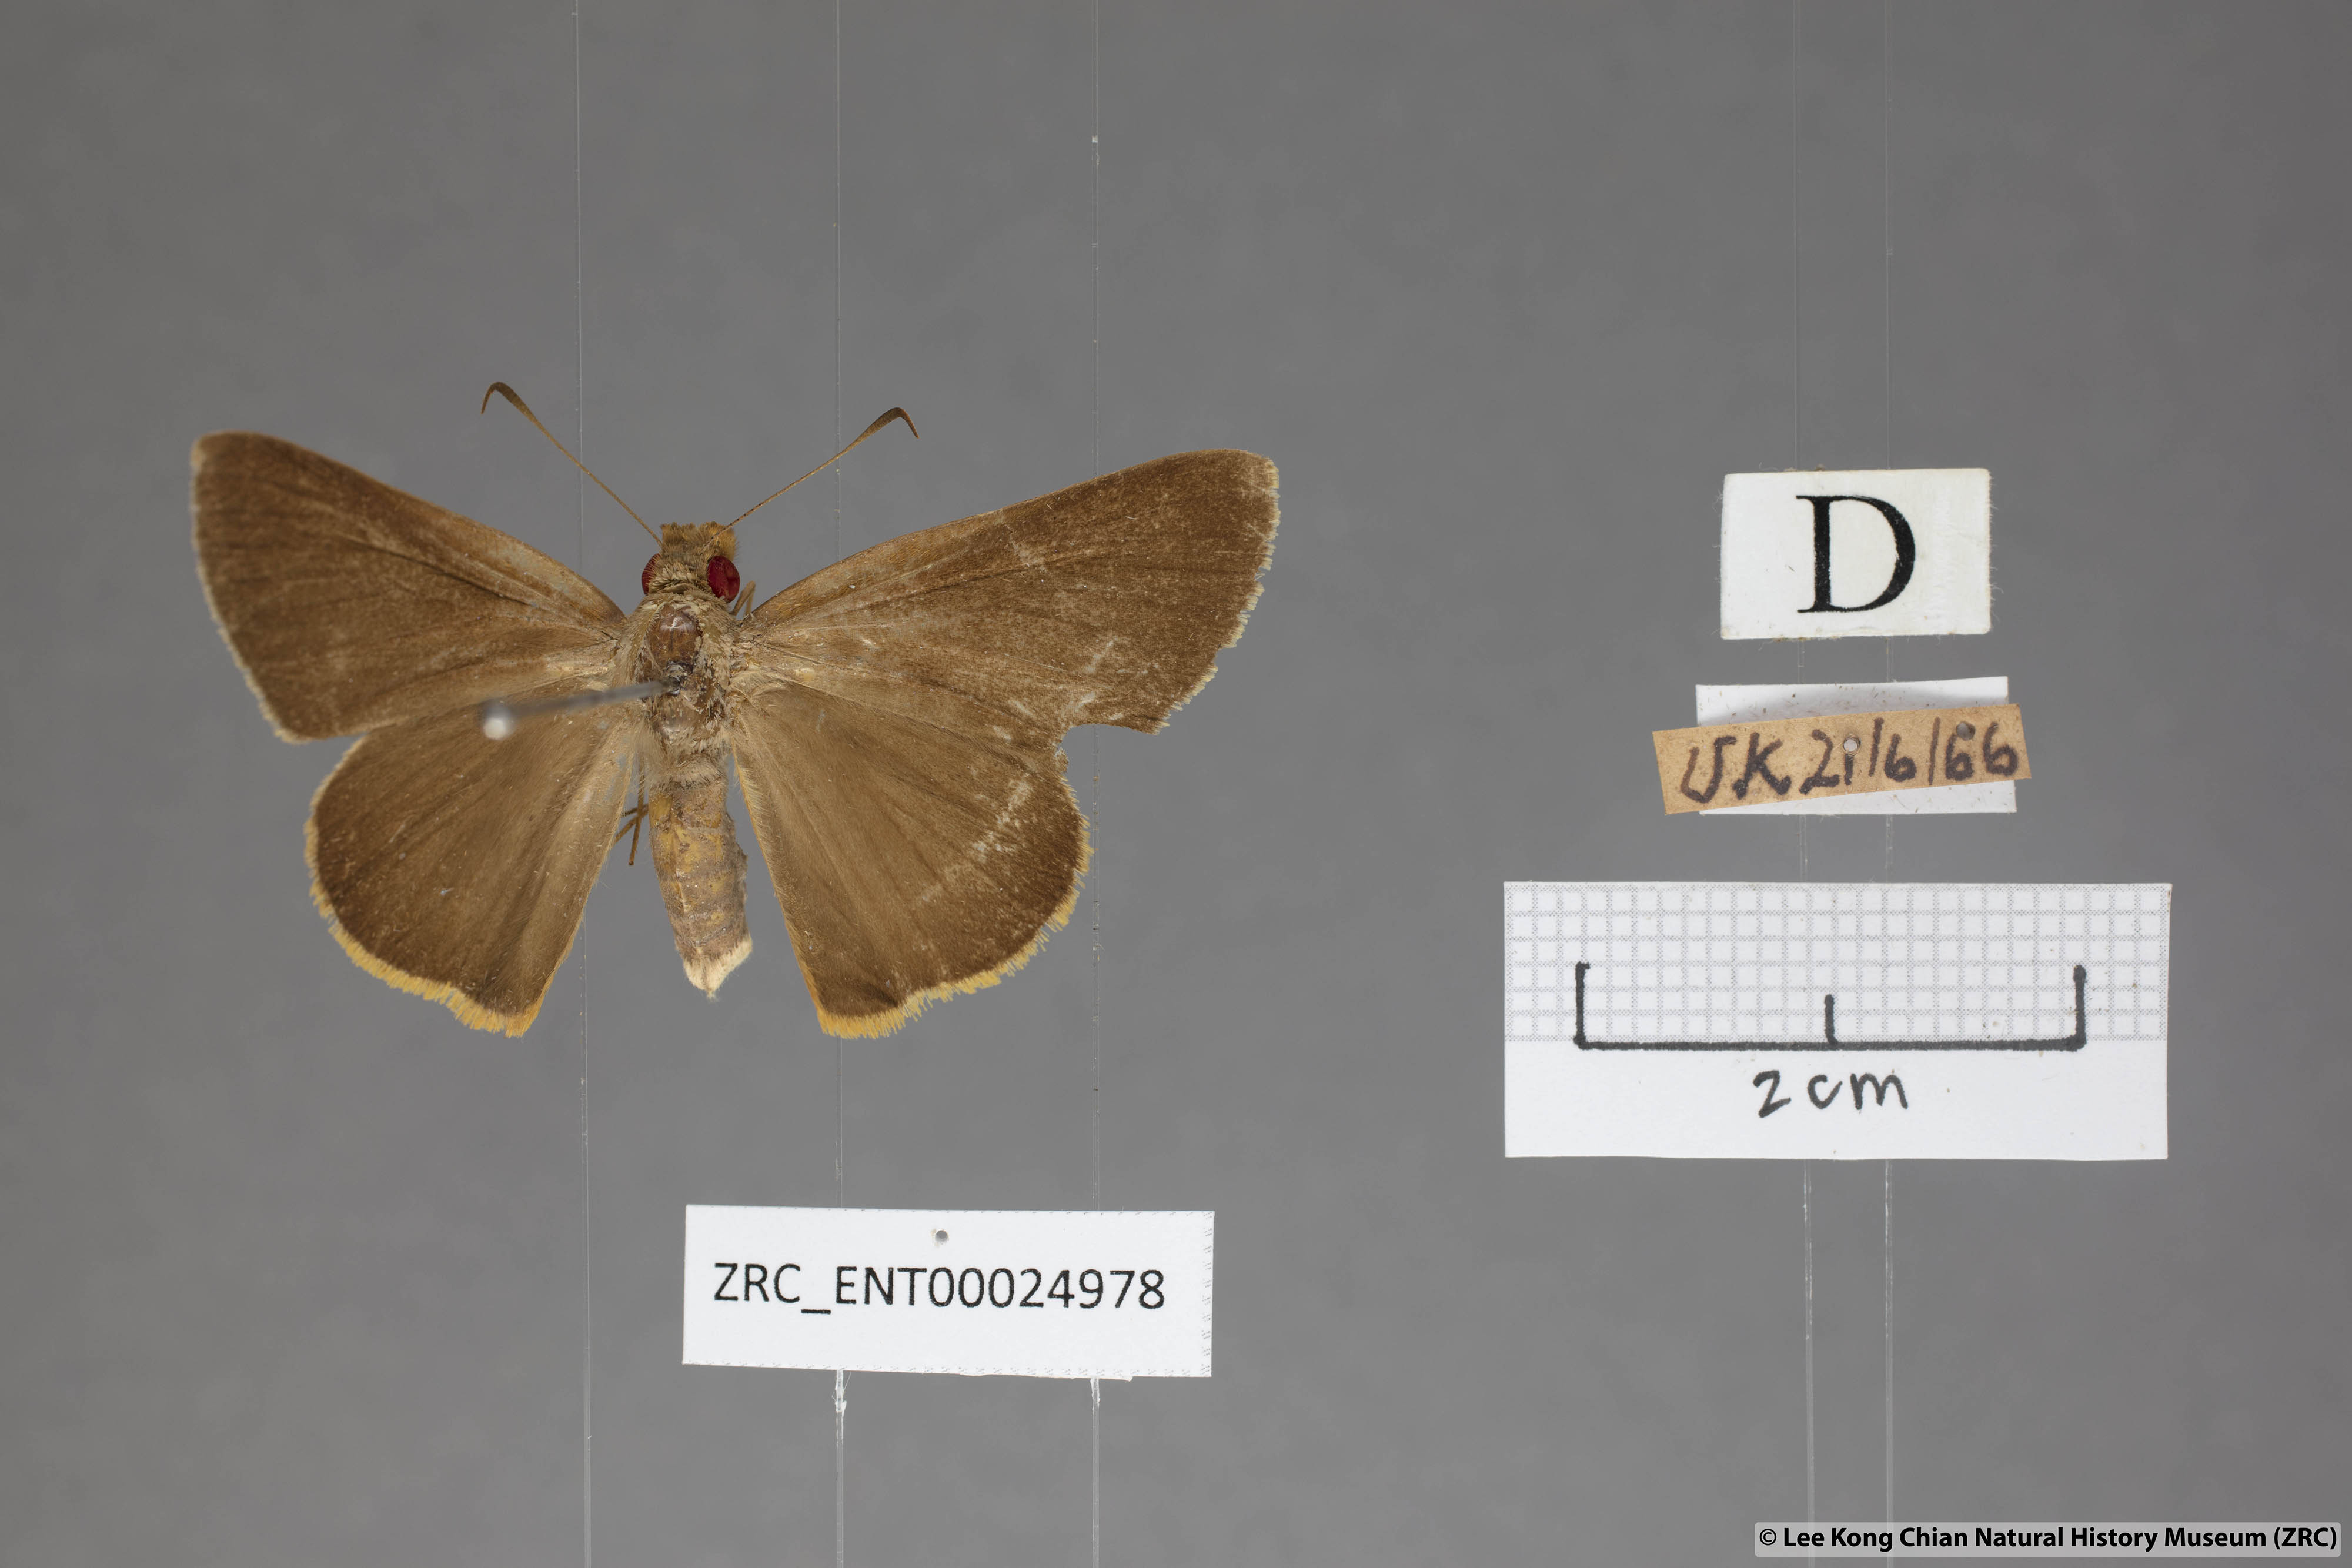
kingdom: Animalia
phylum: Arthropoda
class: Insecta
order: Lepidoptera
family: Hesperiidae
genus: Matapa
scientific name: Matapa druna
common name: Grey-brand redeye
